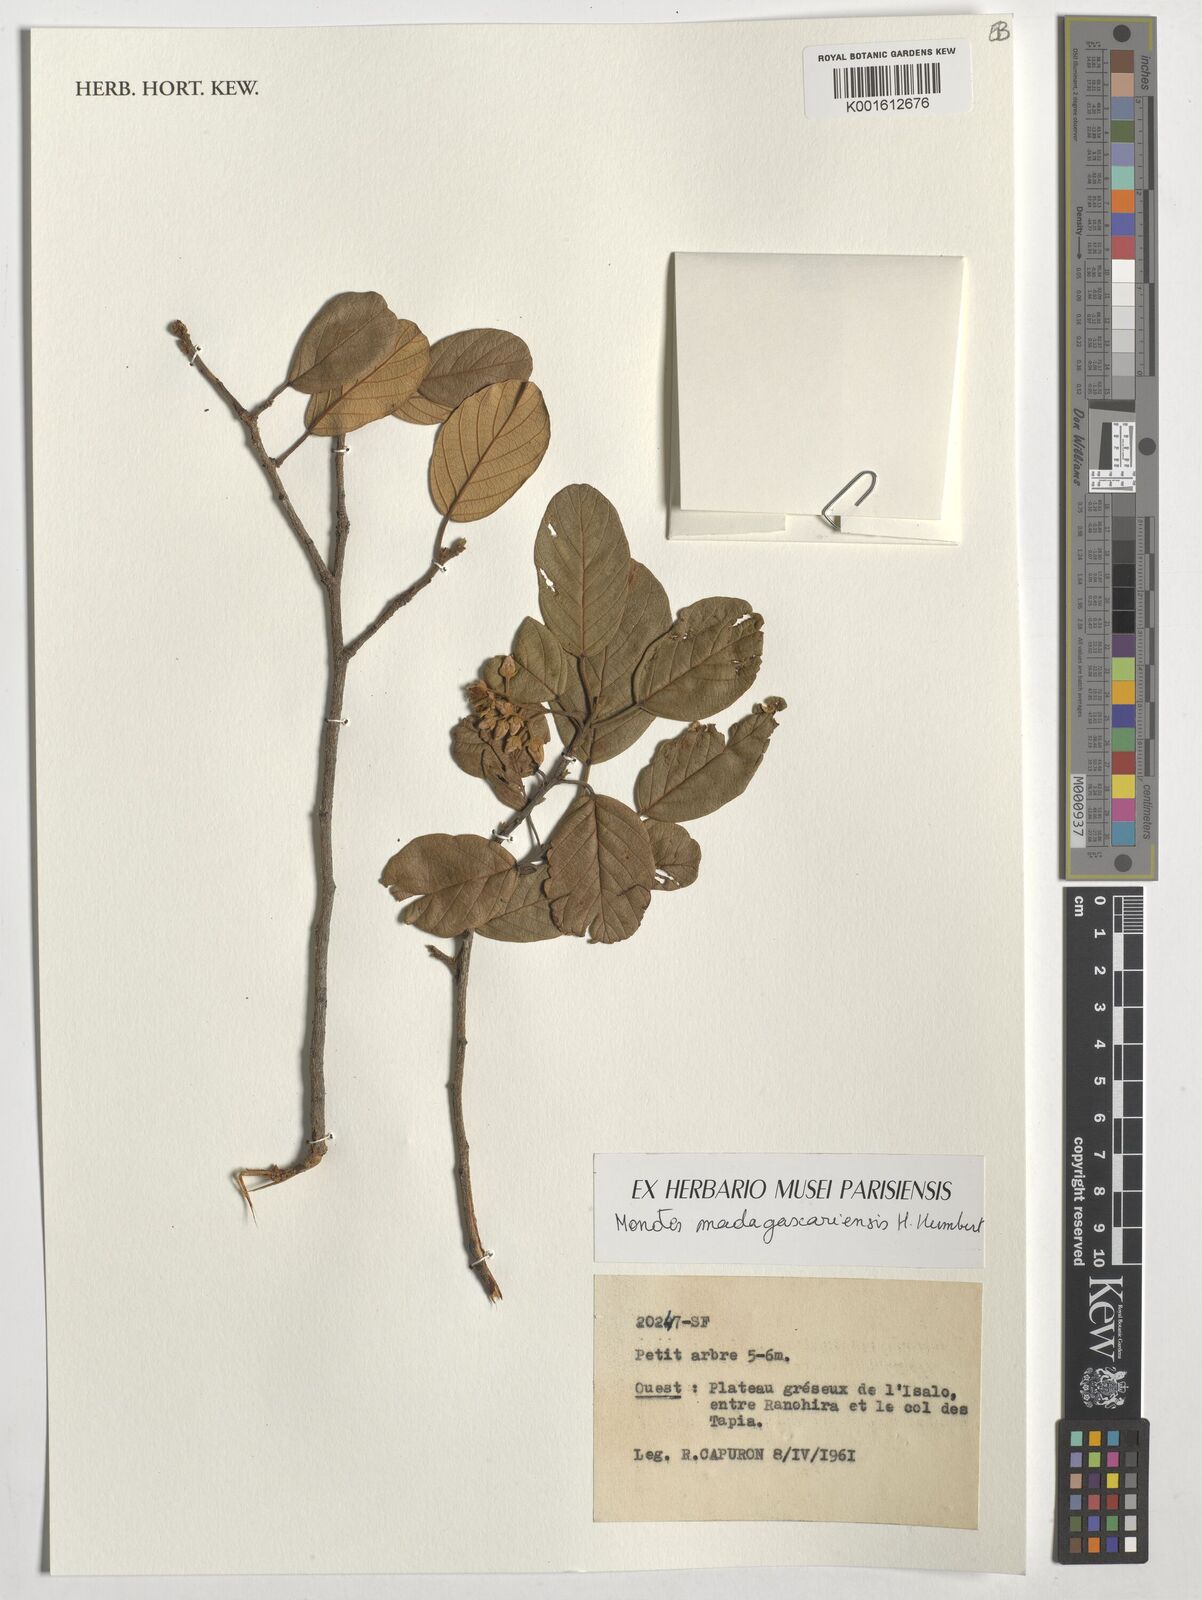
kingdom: Plantae
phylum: Tracheophyta
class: Magnoliopsida
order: Malvales
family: Dipterocarpaceae
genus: Monotes
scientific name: Monotes madagascariensis
